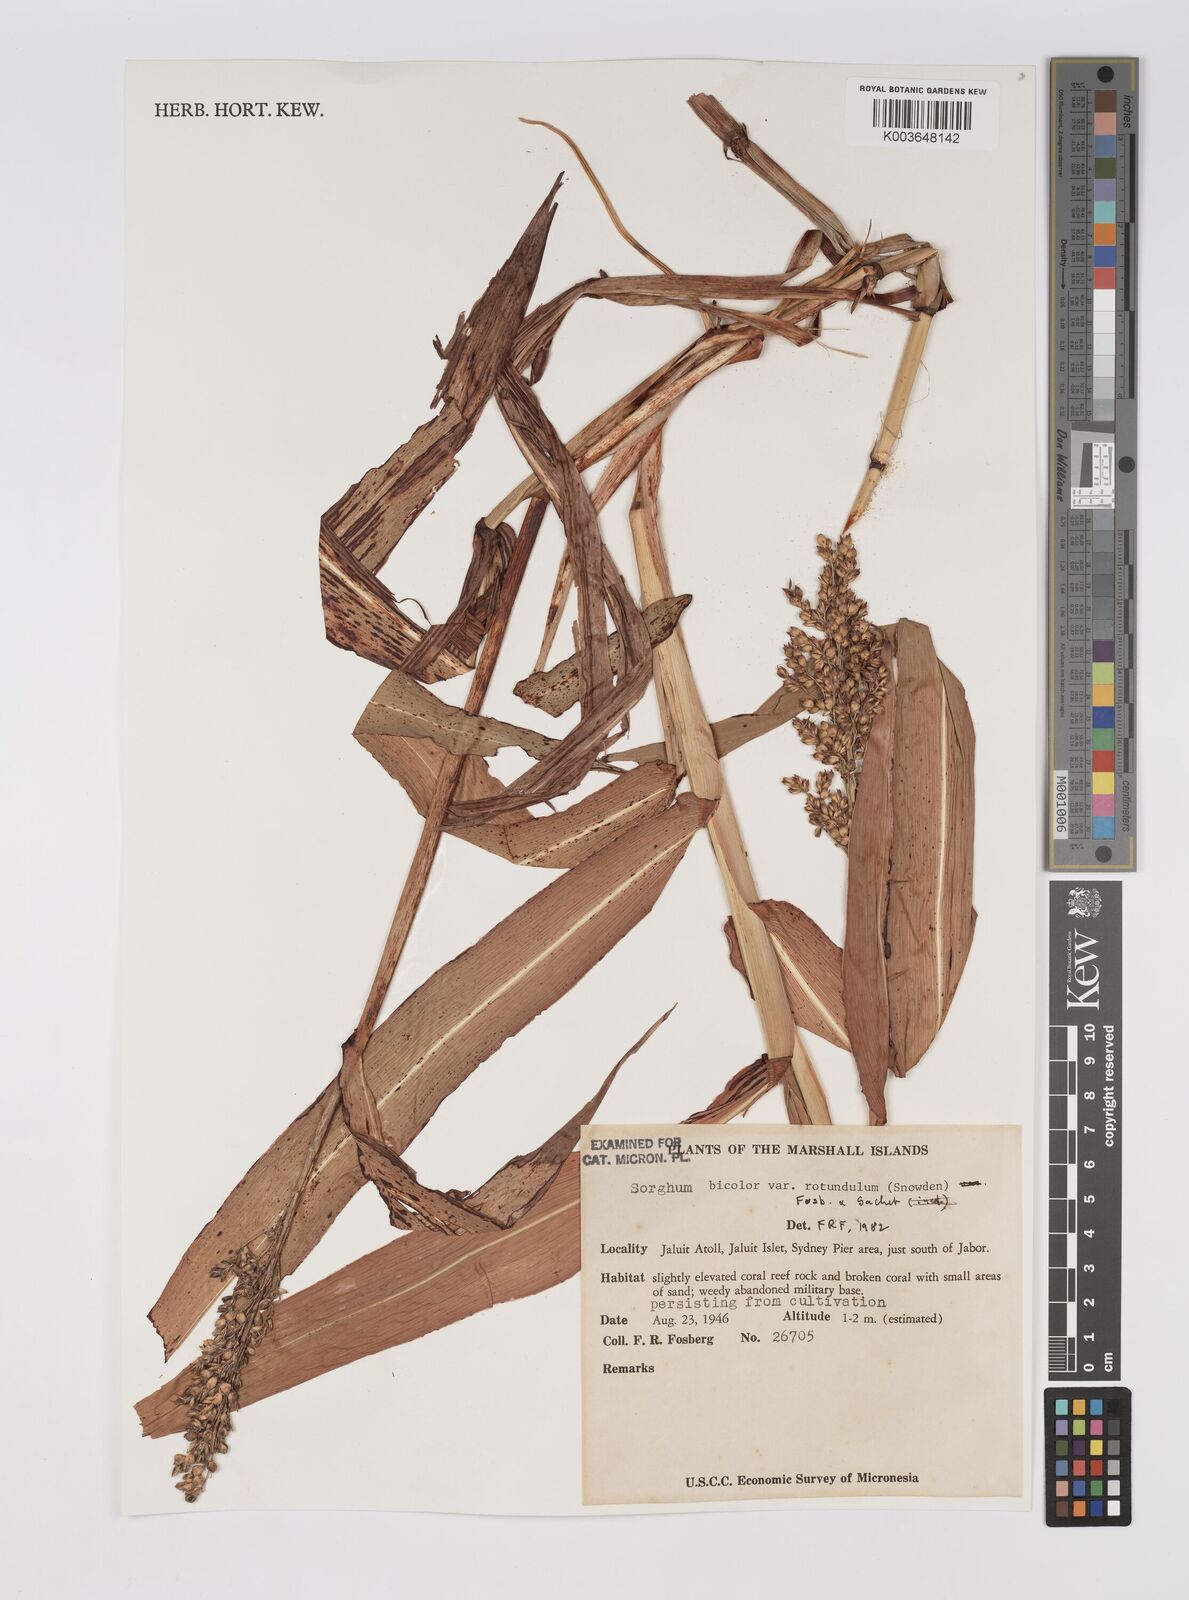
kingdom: Plantae
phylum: Tracheophyta
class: Liliopsida
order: Poales
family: Poaceae
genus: Sorghum
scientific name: Sorghum bicolor
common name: Sorghum
